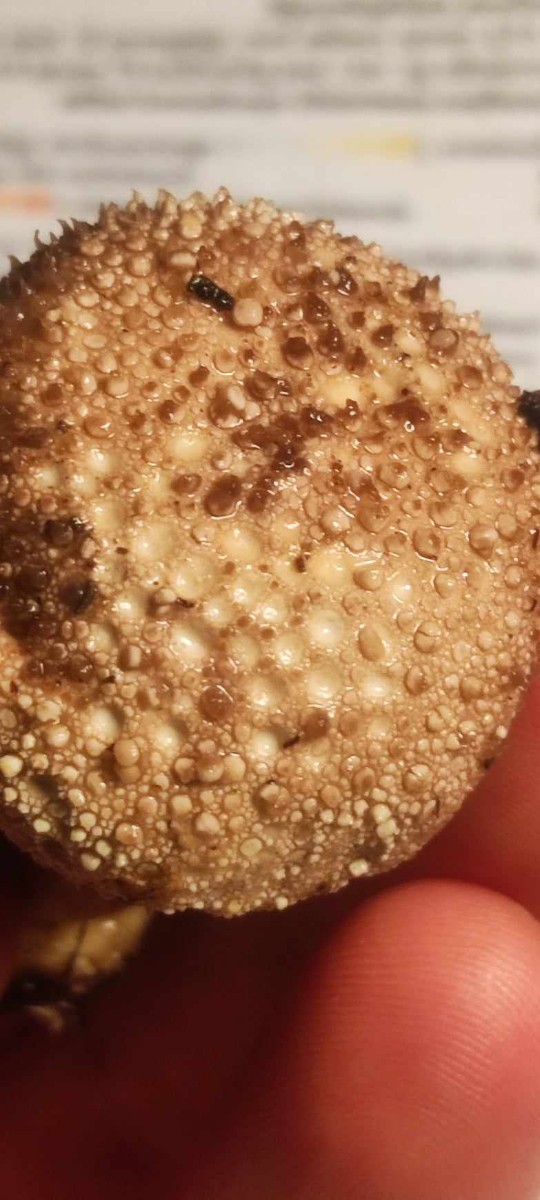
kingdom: Fungi
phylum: Basidiomycota
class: Agaricomycetes
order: Agaricales
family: Lycoperdaceae
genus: Lycoperdon
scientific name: Lycoperdon perlatum
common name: krystal-støvbold
